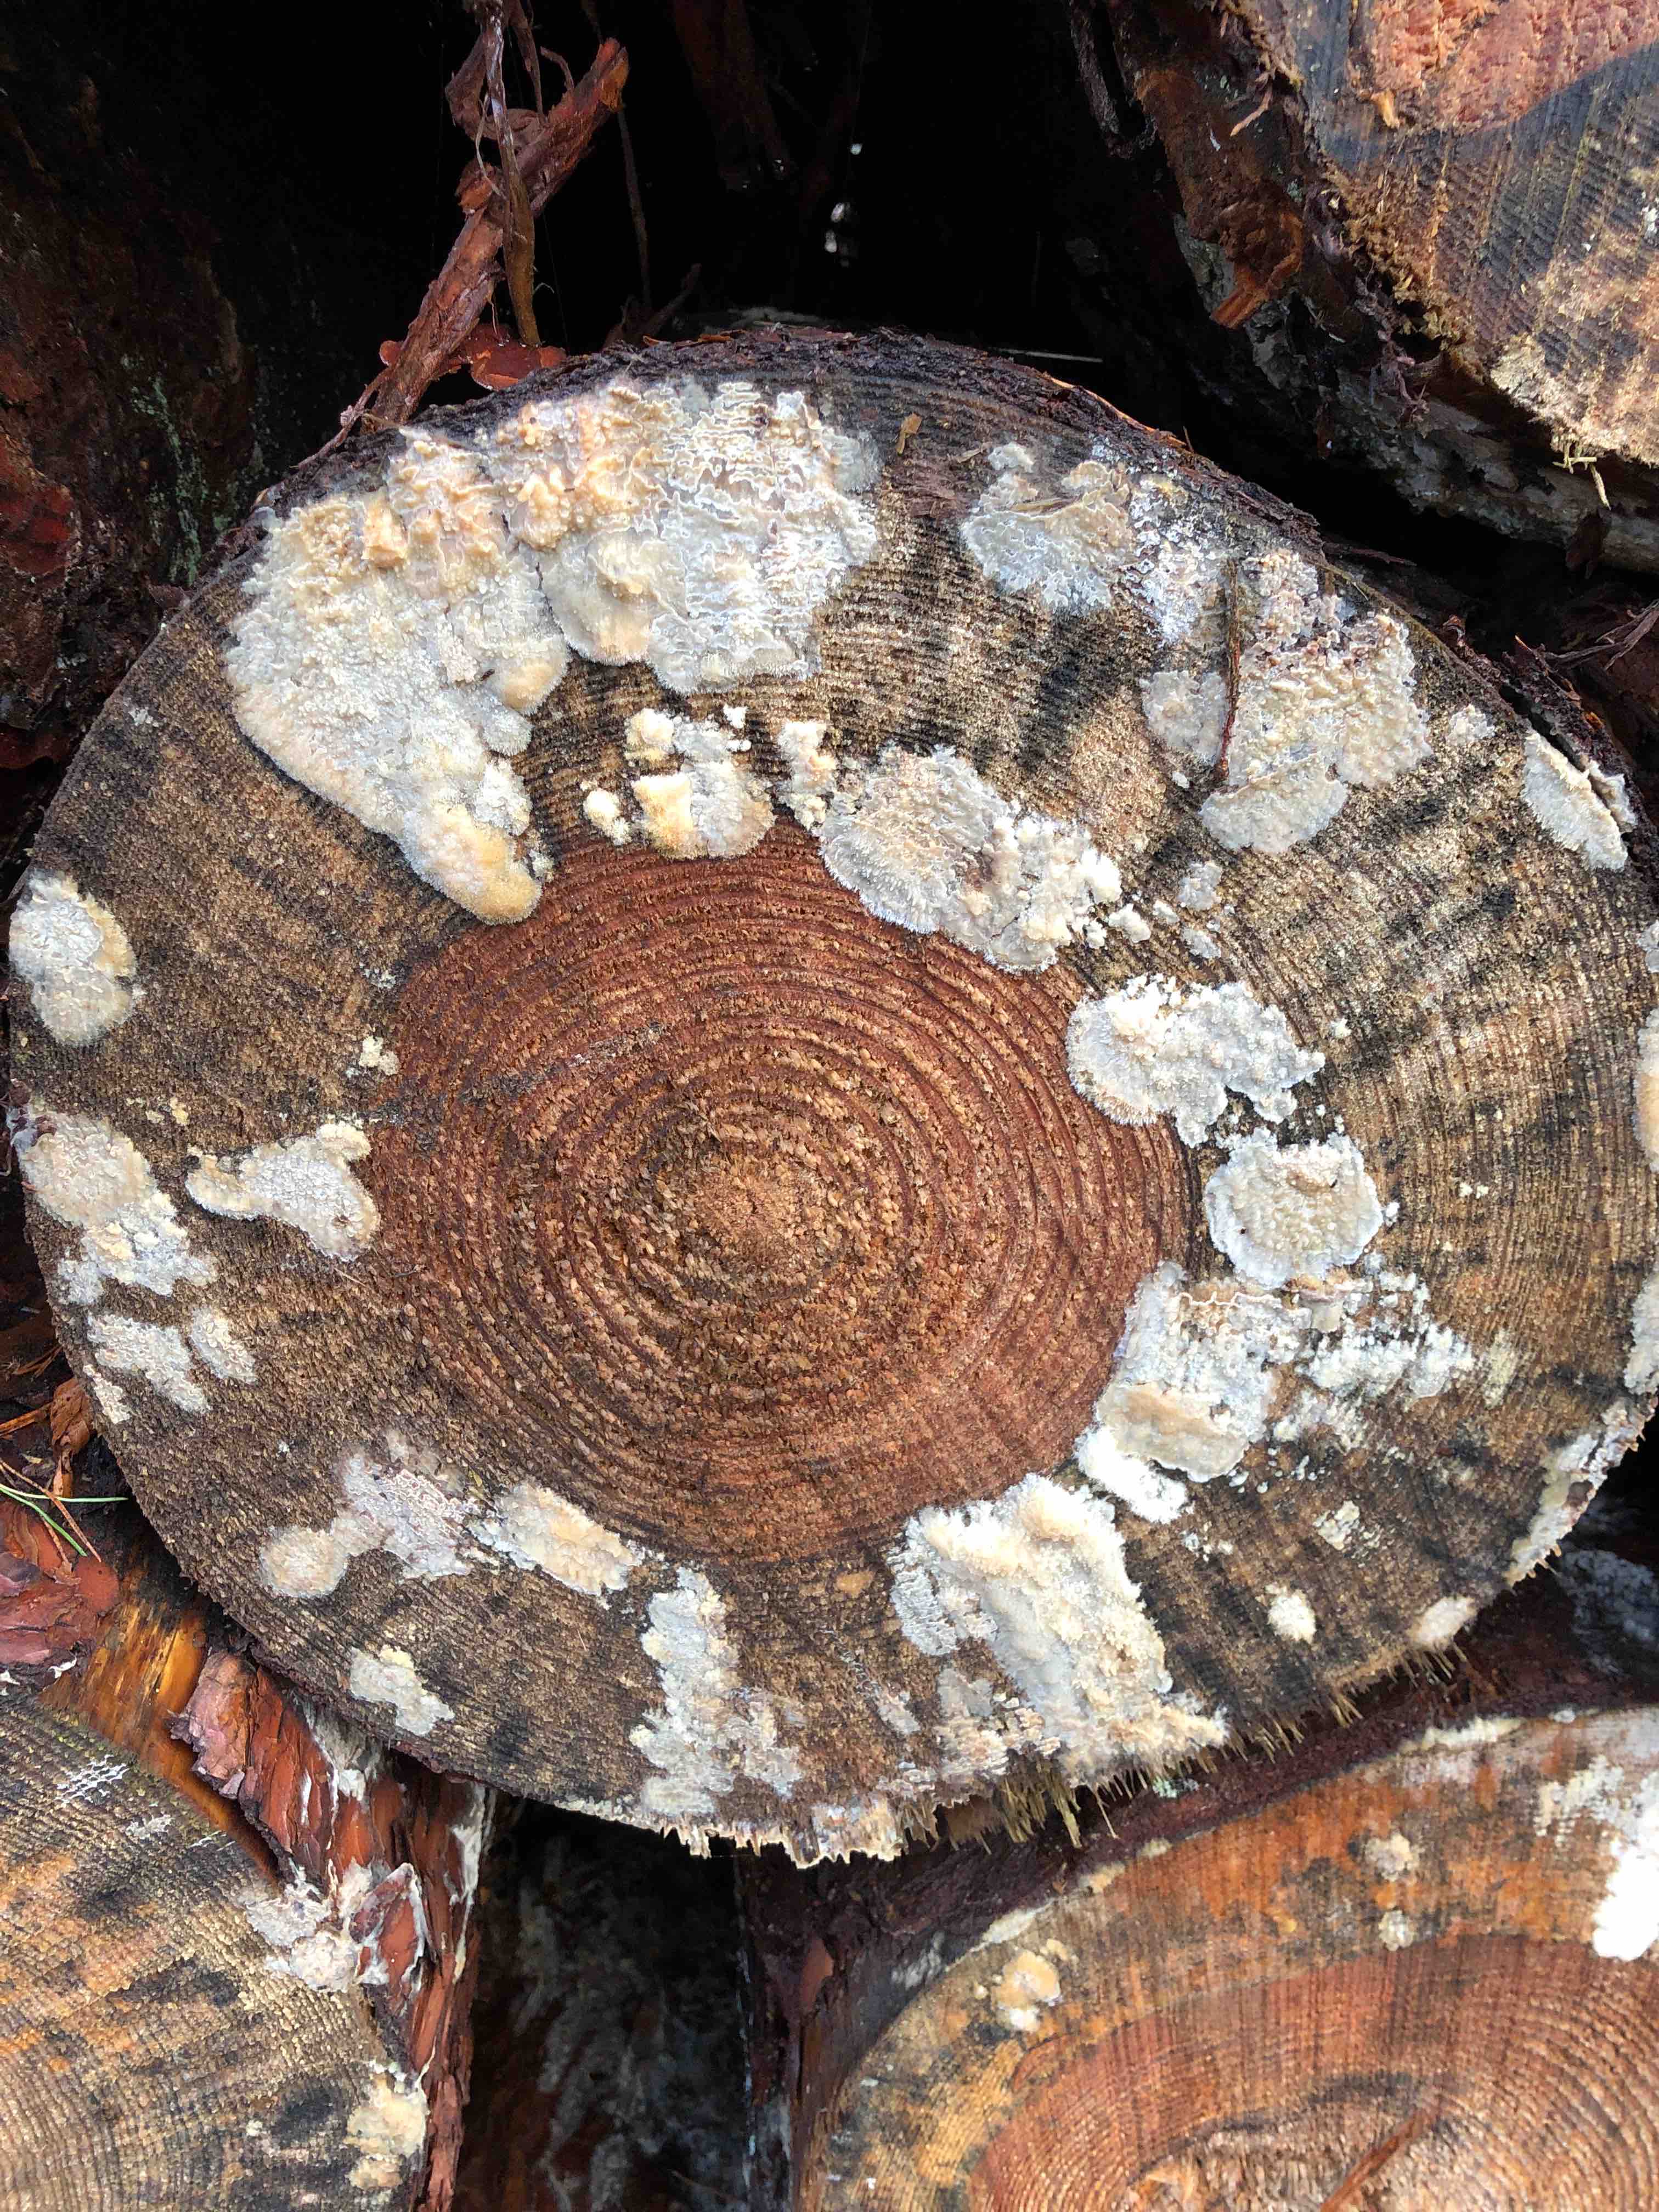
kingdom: Fungi
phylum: Basidiomycota
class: Agaricomycetes
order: Polyporales
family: Phanerochaetaceae
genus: Phlebiopsis
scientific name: Phlebiopsis gigantea
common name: kæmpebarksvamp
